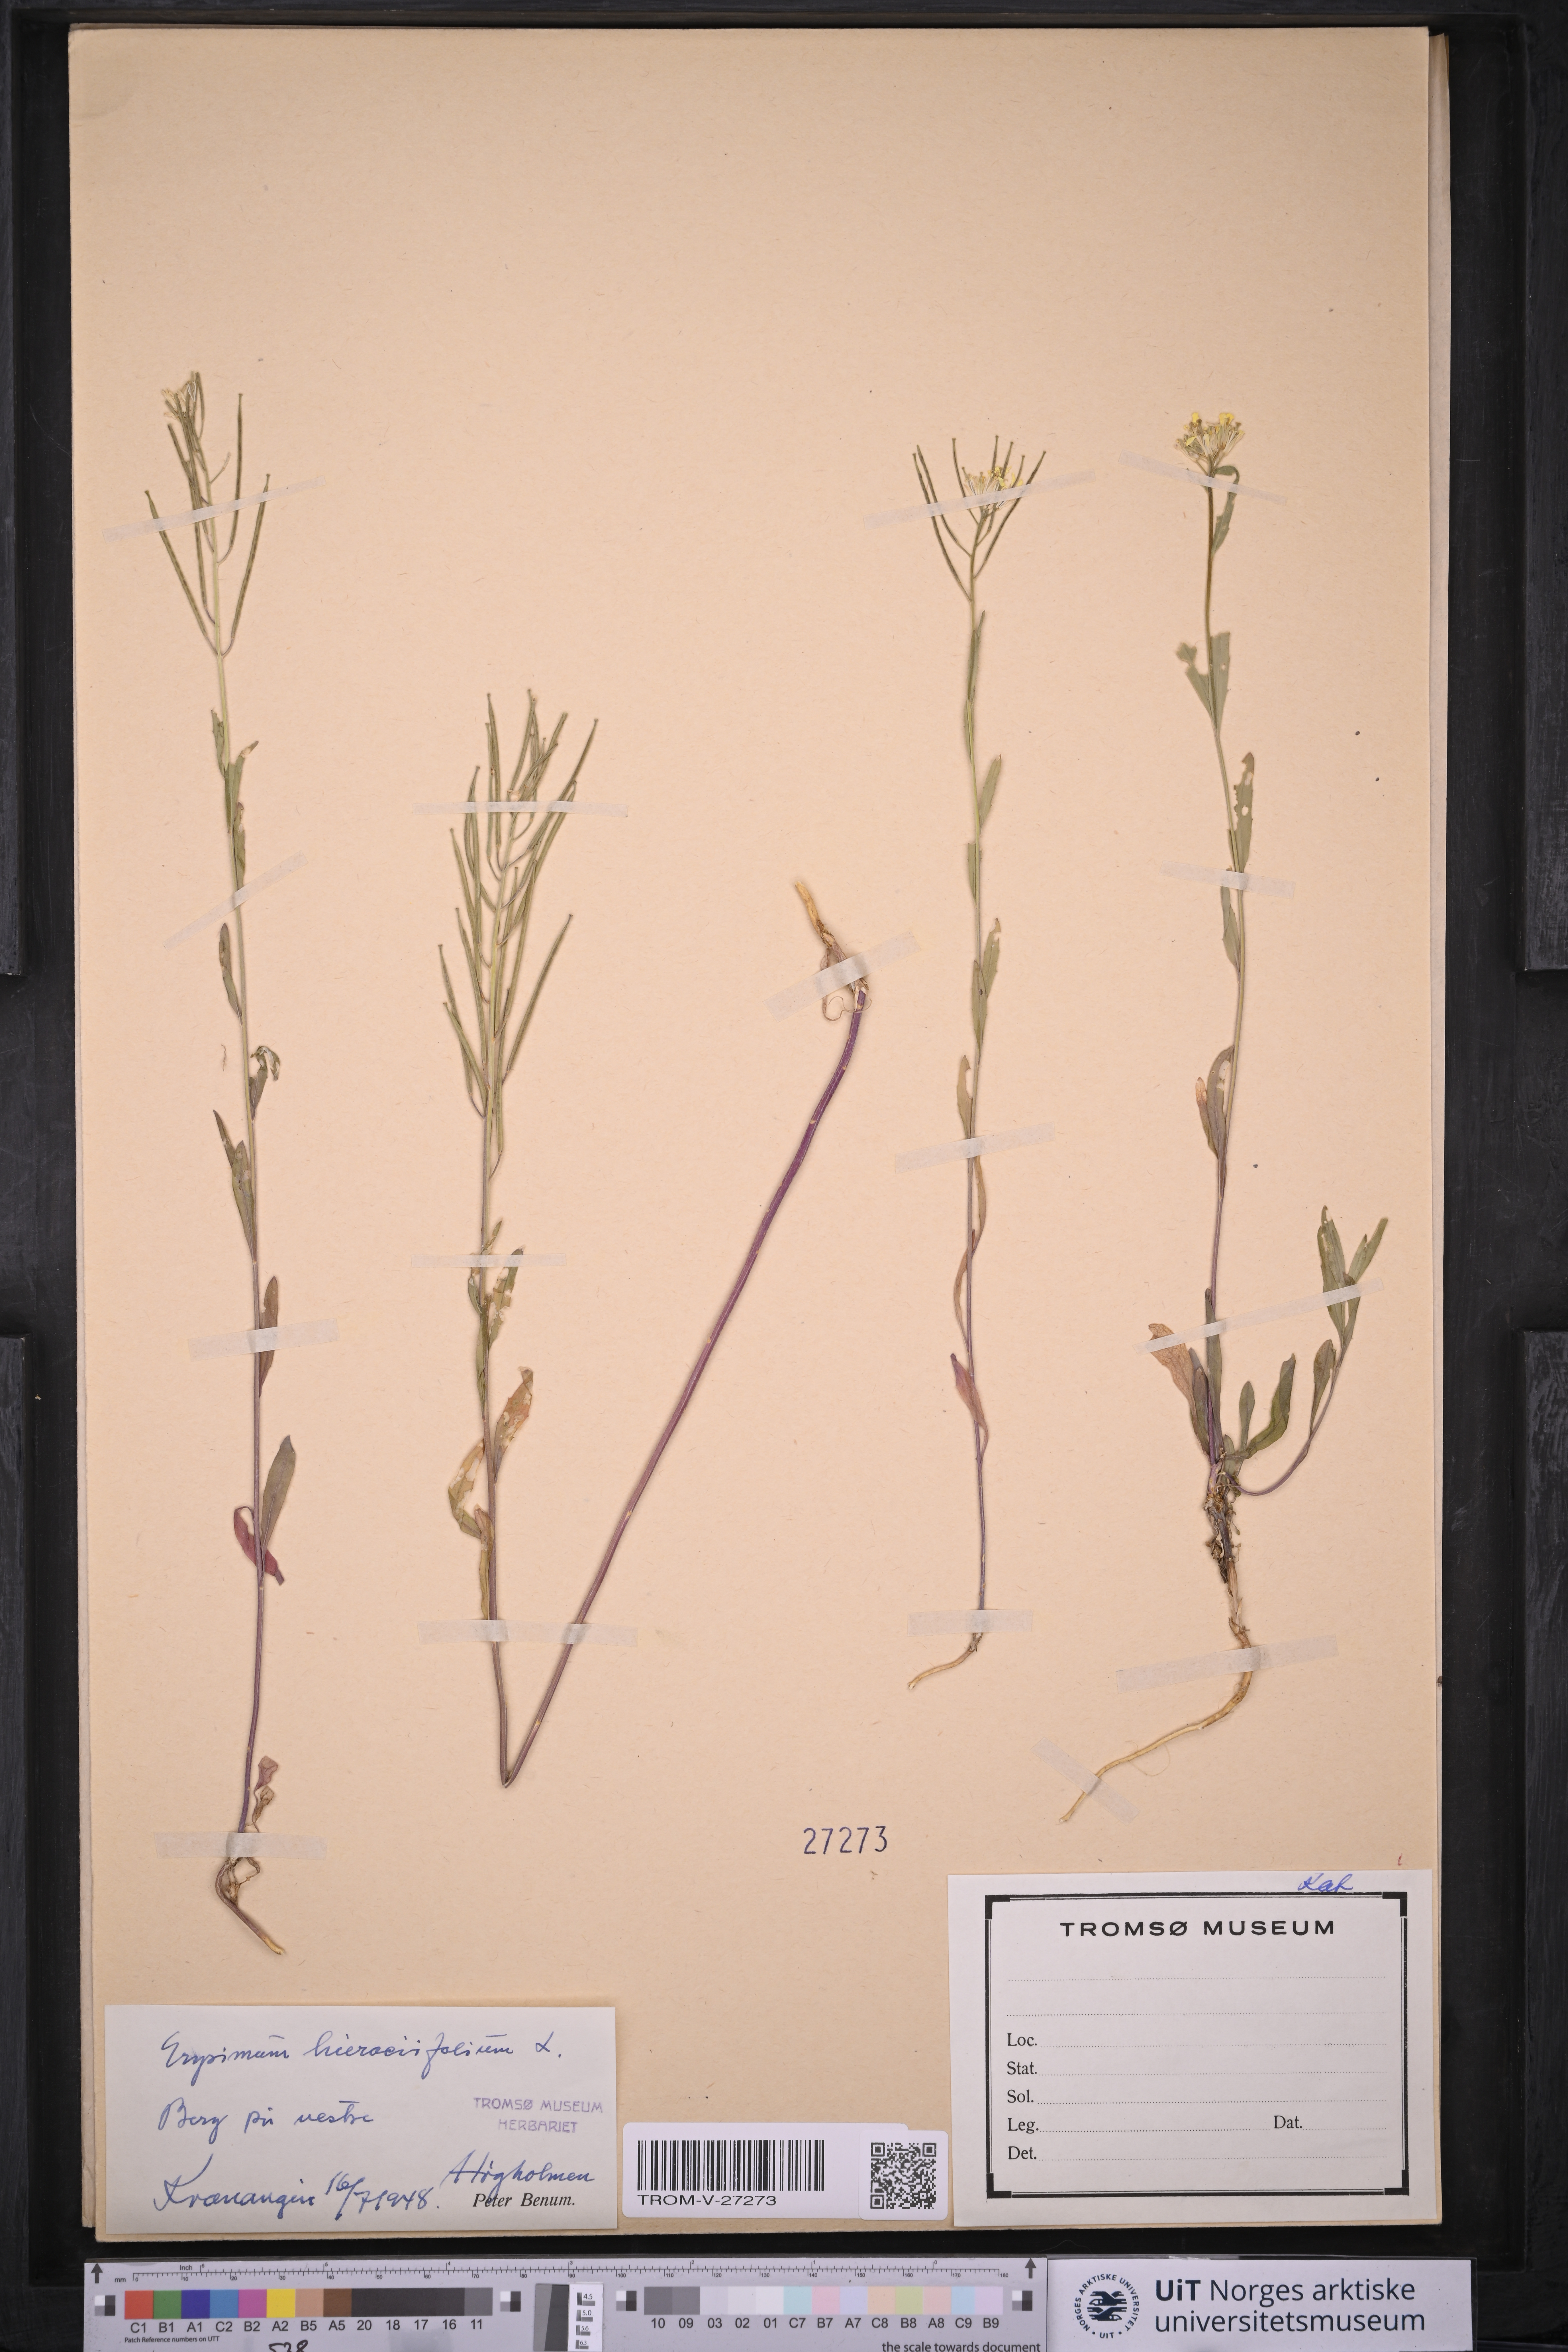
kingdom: Plantae
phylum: Tracheophyta
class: Magnoliopsida
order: Brassicales
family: Brassicaceae
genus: Erysimum
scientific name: Erysimum virgatum
